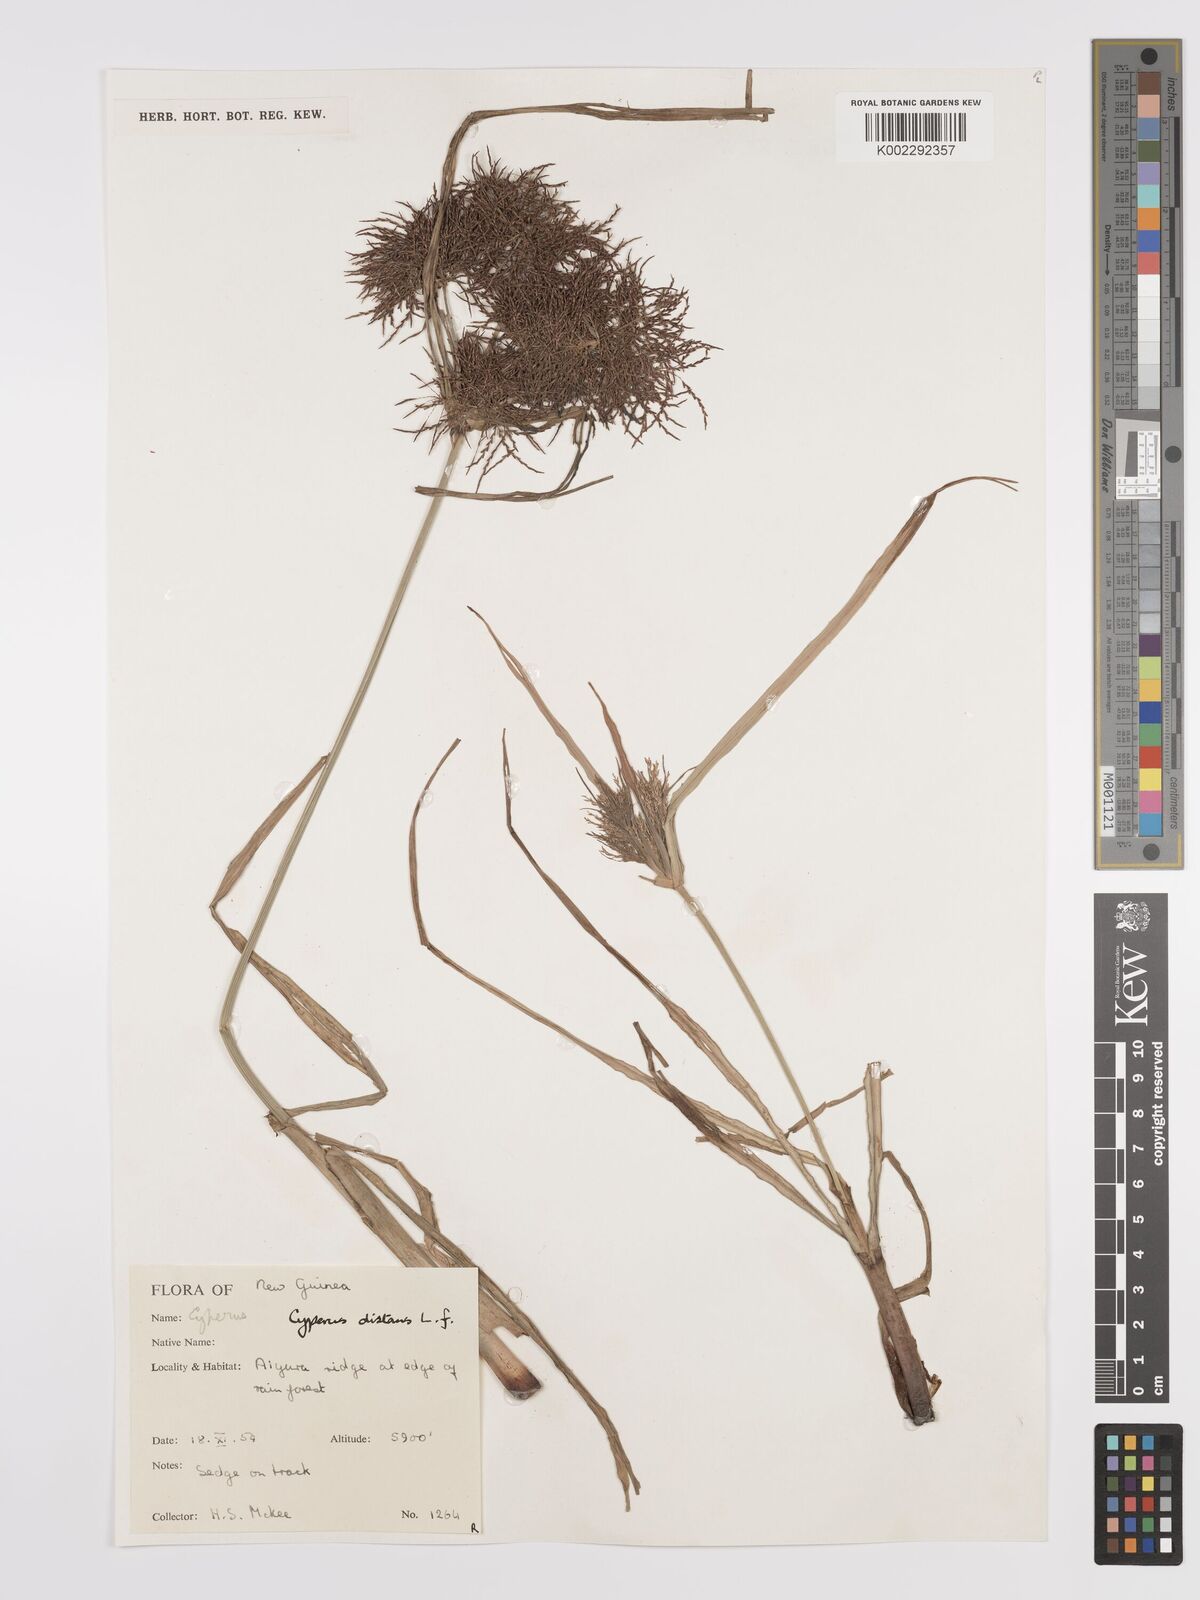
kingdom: Plantae
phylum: Tracheophyta
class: Liliopsida
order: Poales
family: Cyperaceae
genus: Cyperus
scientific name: Cyperus distans
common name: Slender cyperus
